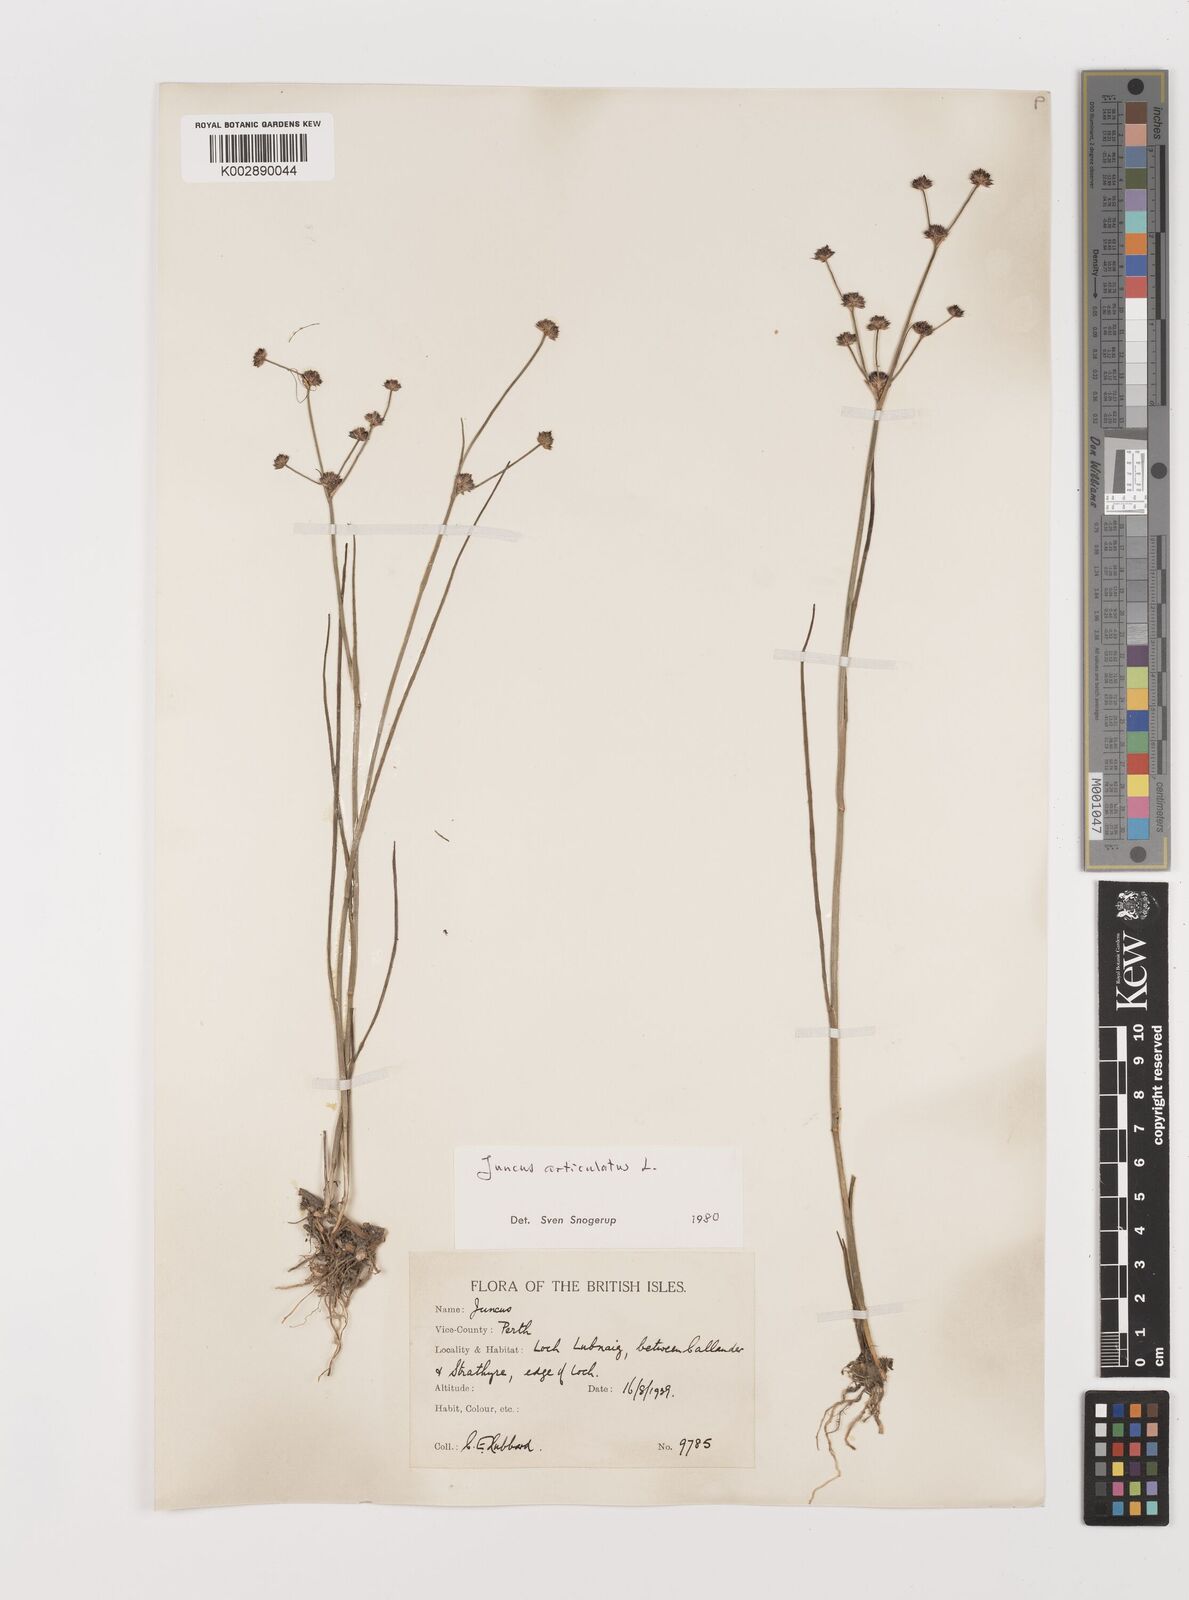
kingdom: Plantae
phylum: Tracheophyta
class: Liliopsida
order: Poales
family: Juncaceae
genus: Juncus
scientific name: Juncus articulatus
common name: Jointed rush
